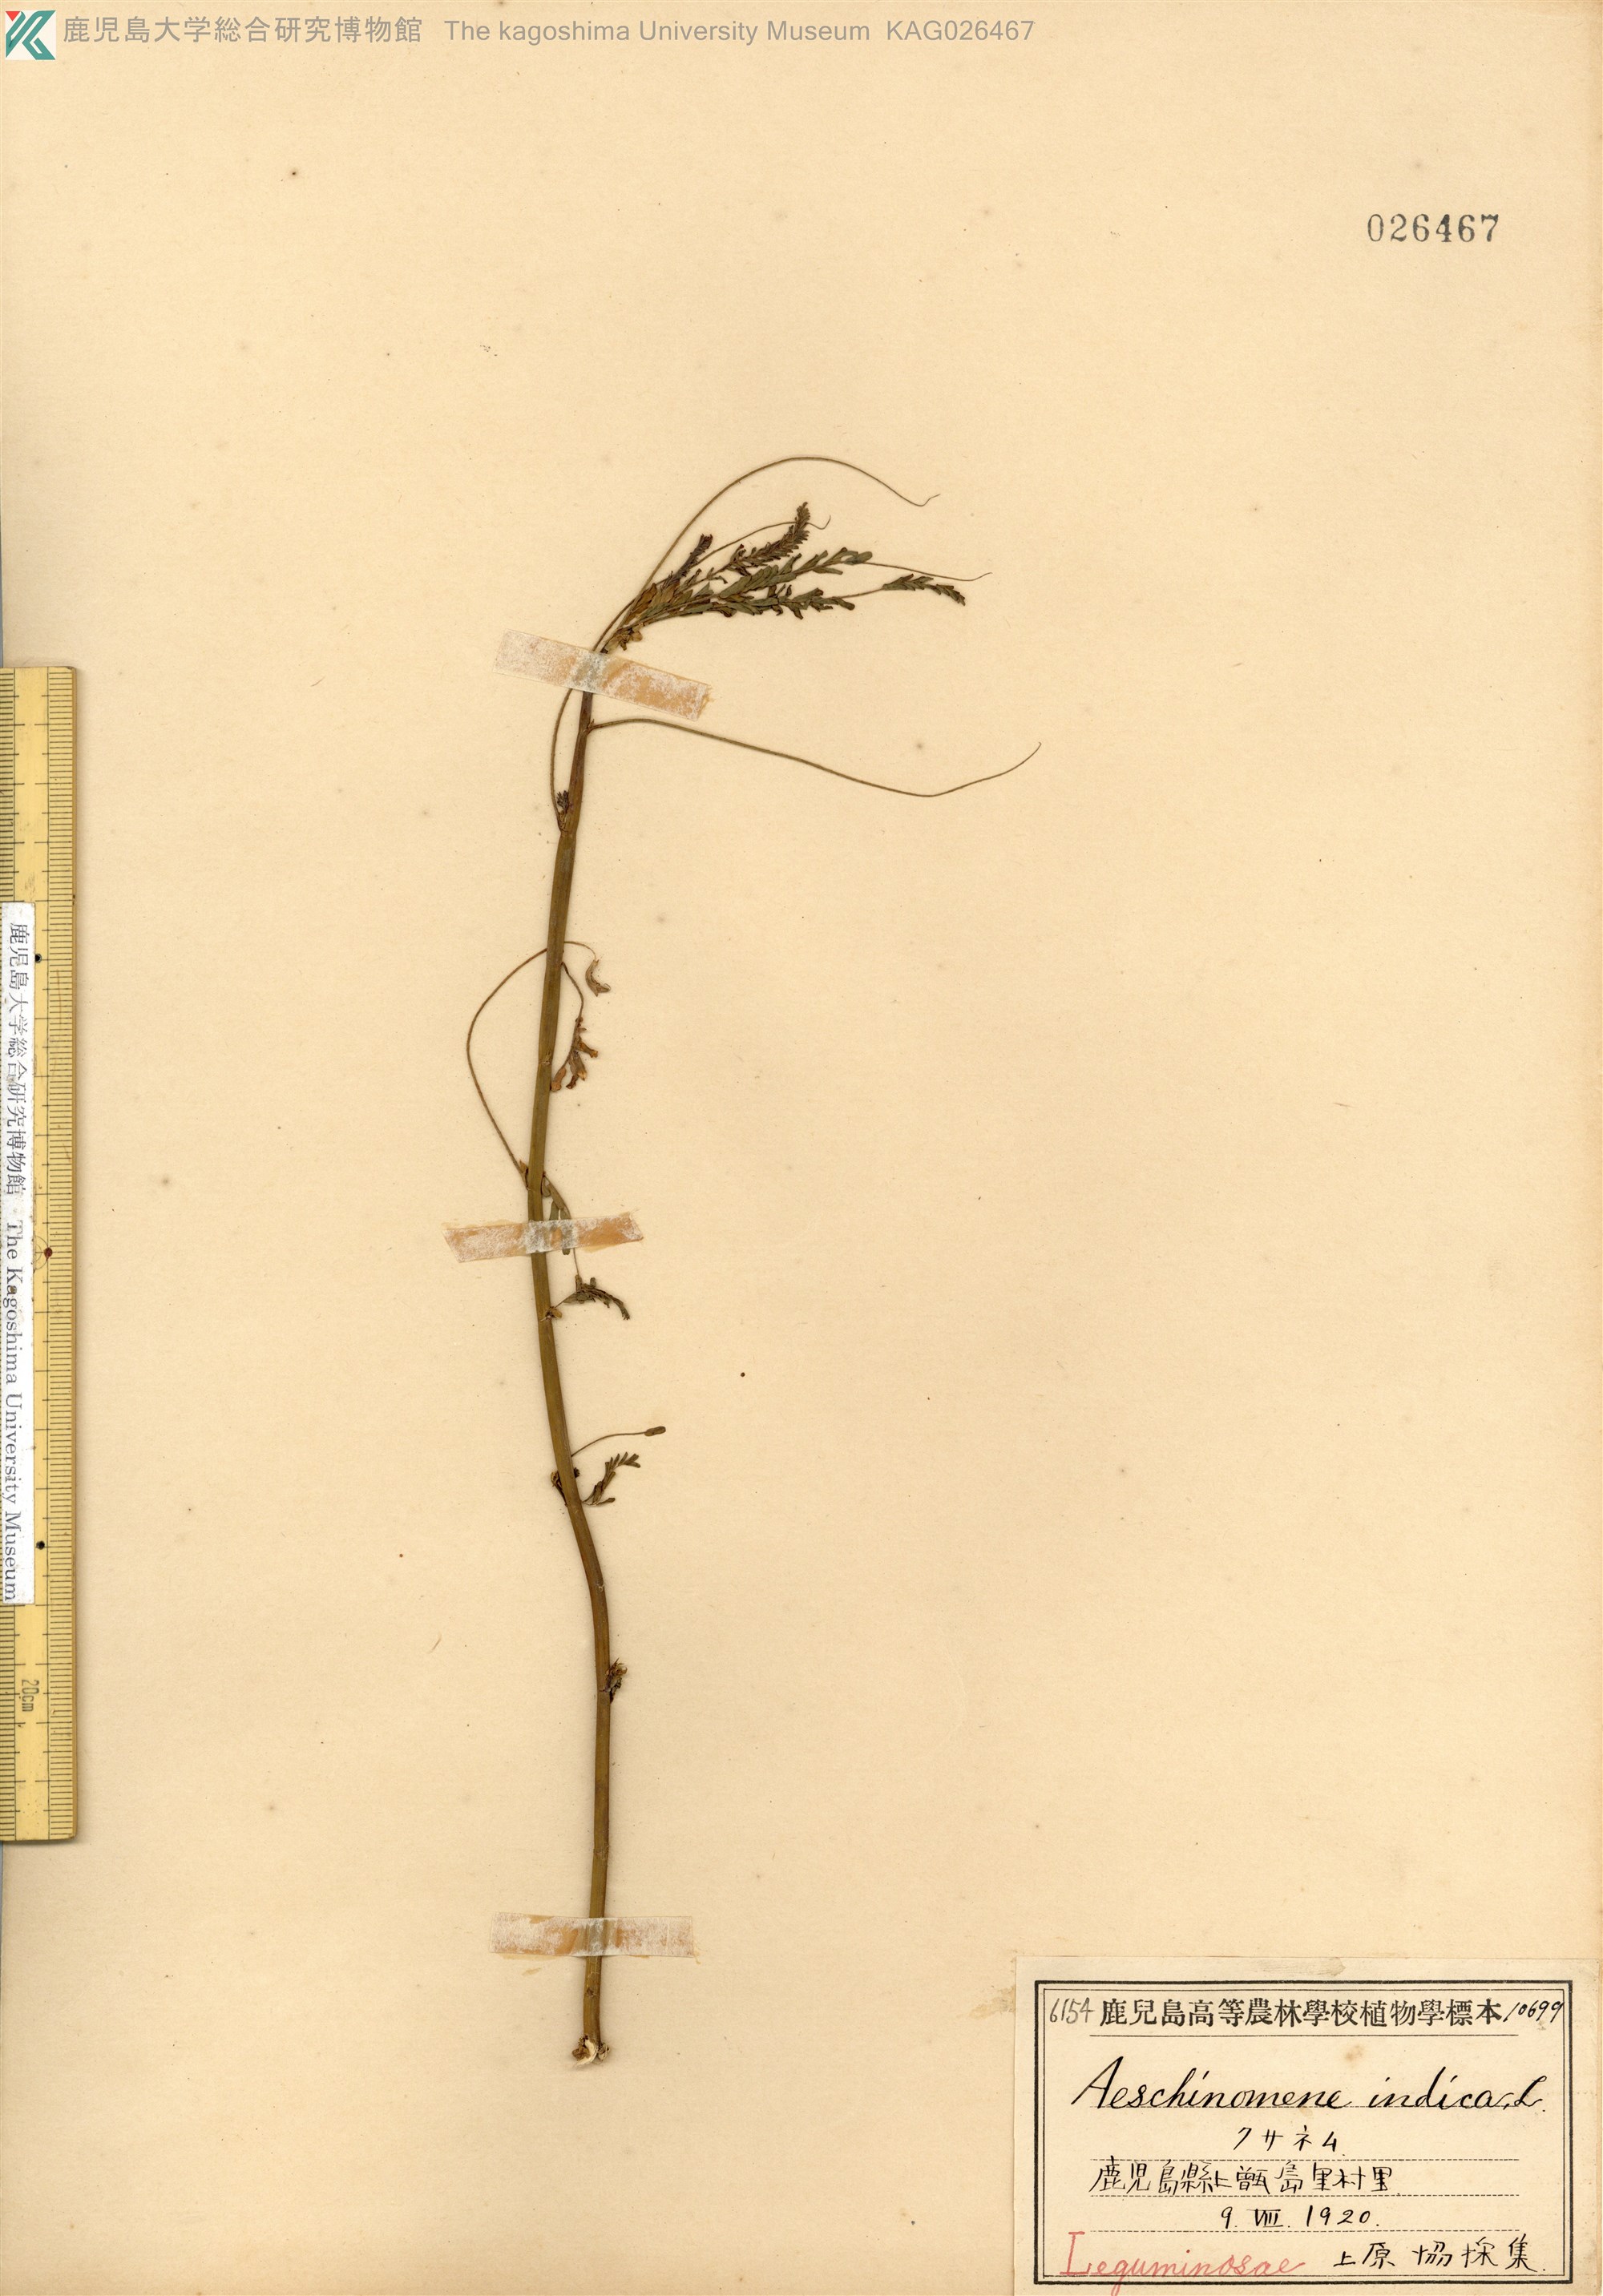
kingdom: Plantae
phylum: Tracheophyta
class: Magnoliopsida
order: Fabales
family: Fabaceae
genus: Aeschynomene
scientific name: Aeschynomene indica
